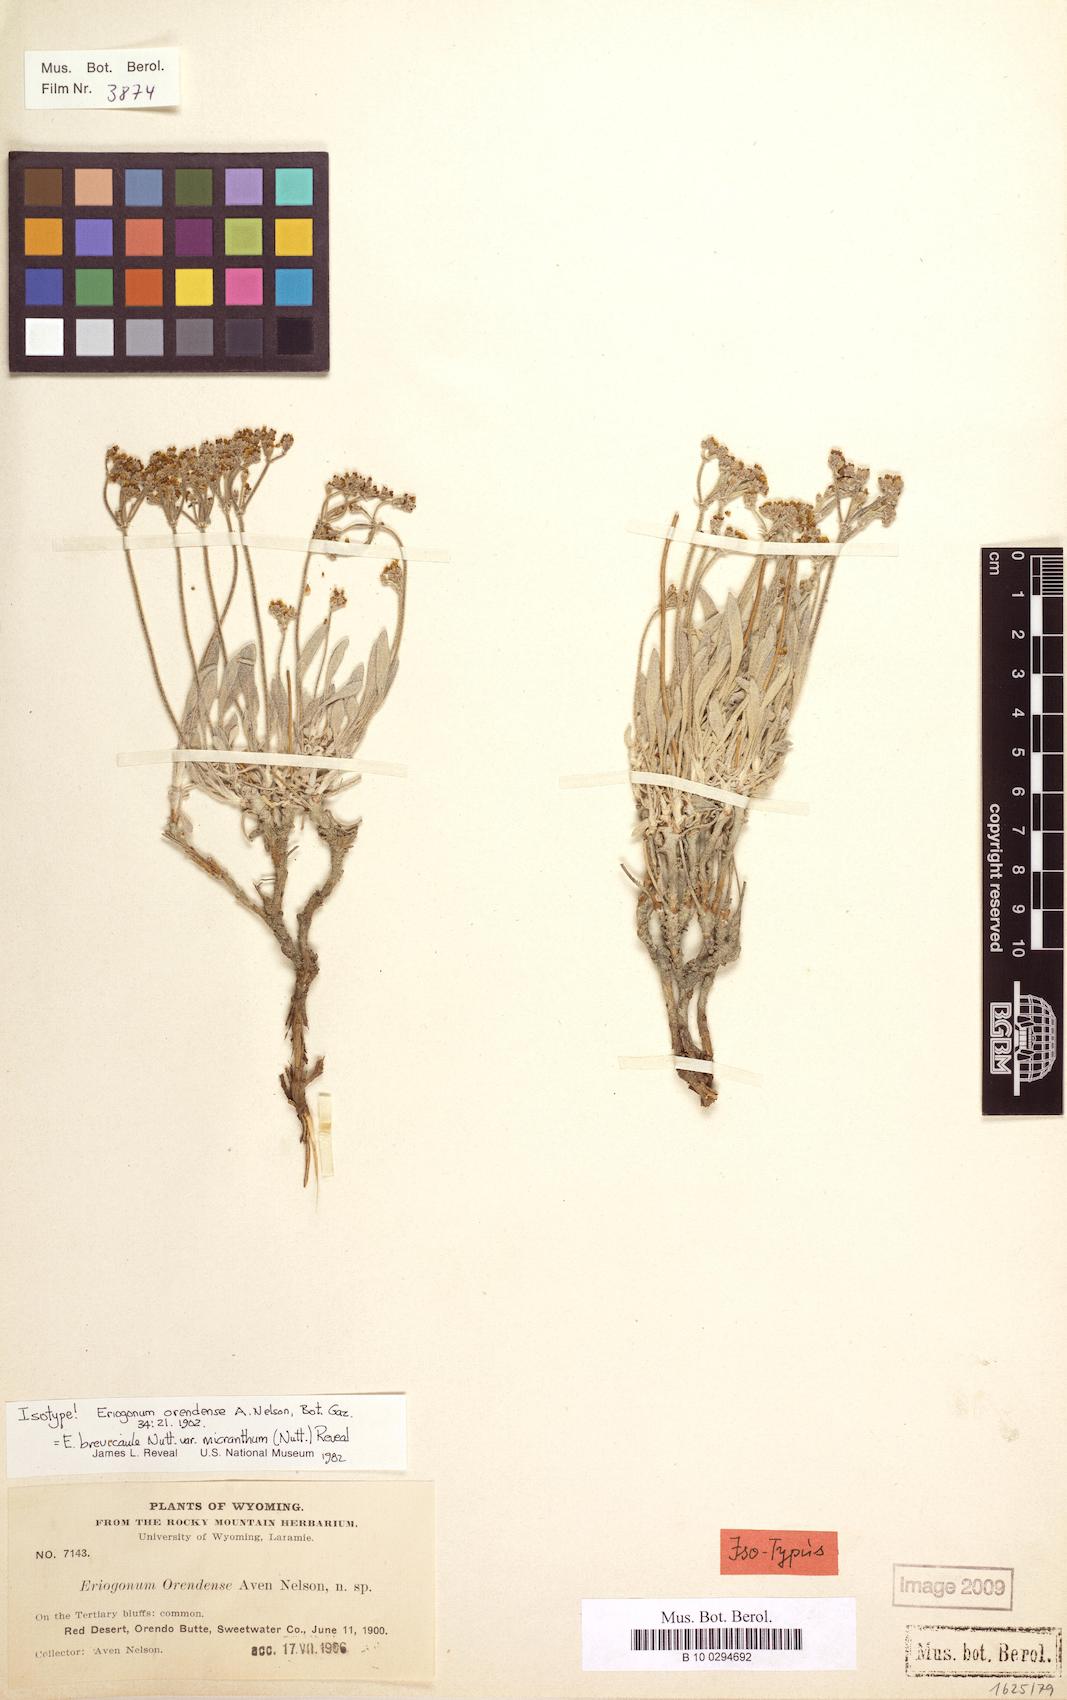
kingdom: Plantae
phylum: Tracheophyta
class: Magnoliopsida
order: Caryophyllales
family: Polygonaceae
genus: Eriogonum
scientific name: Eriogonum brevicaule
